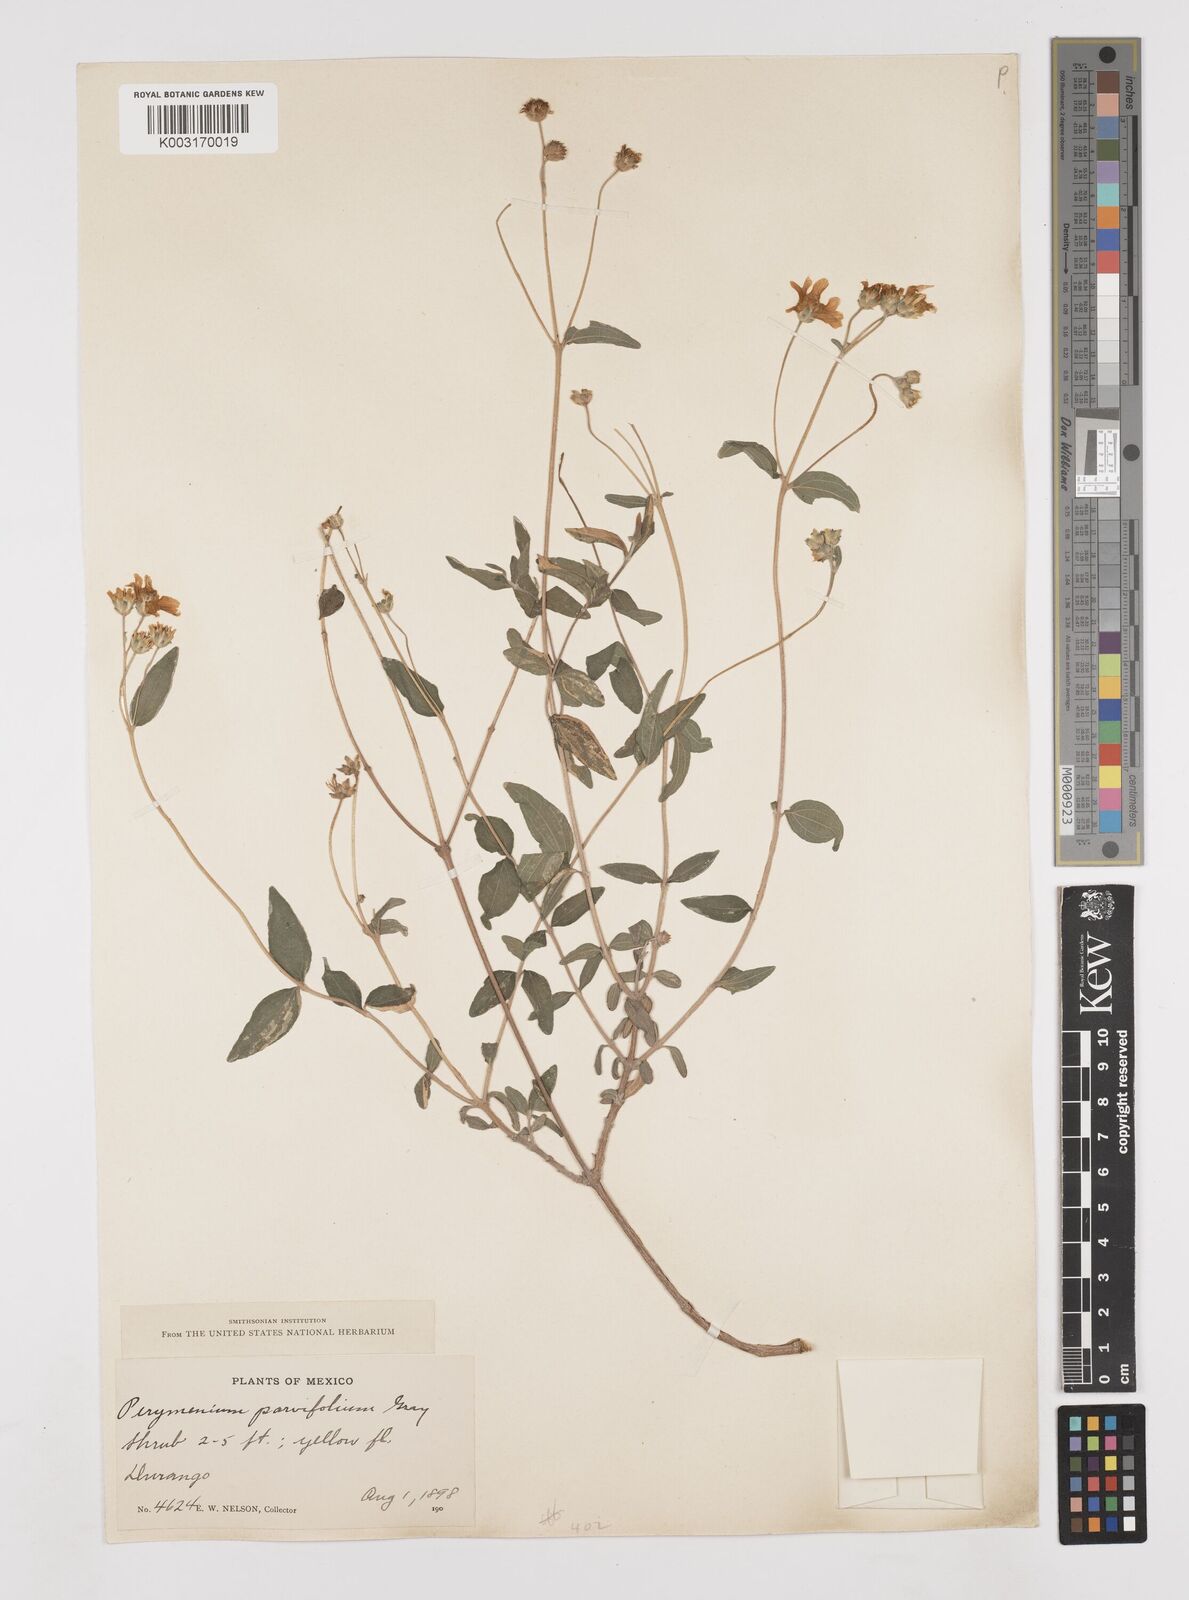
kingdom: Plantae
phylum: Tracheophyta
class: Magnoliopsida
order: Asterales
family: Asteraceae
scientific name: Asteraceae
